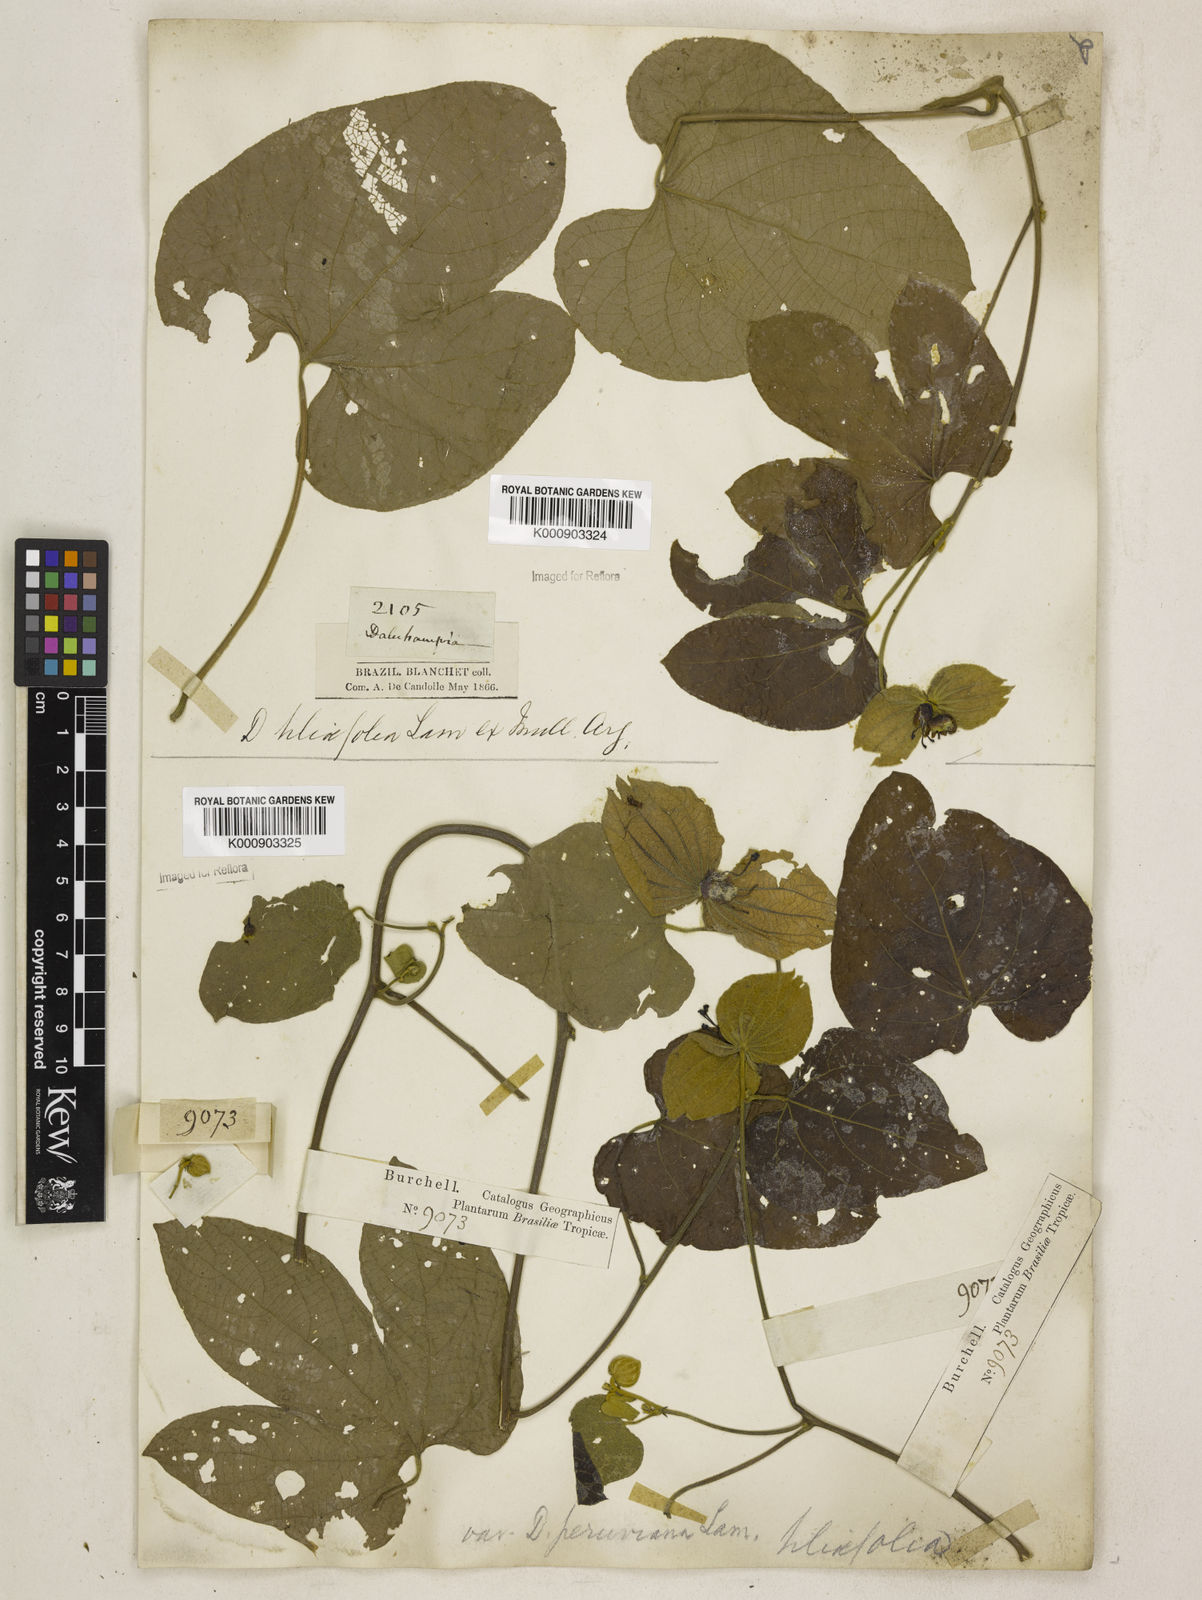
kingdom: Plantae
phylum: Tracheophyta
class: Magnoliopsida
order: Malpighiales
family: Euphorbiaceae
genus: Dalechampia
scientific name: Dalechampia tiliifolia
